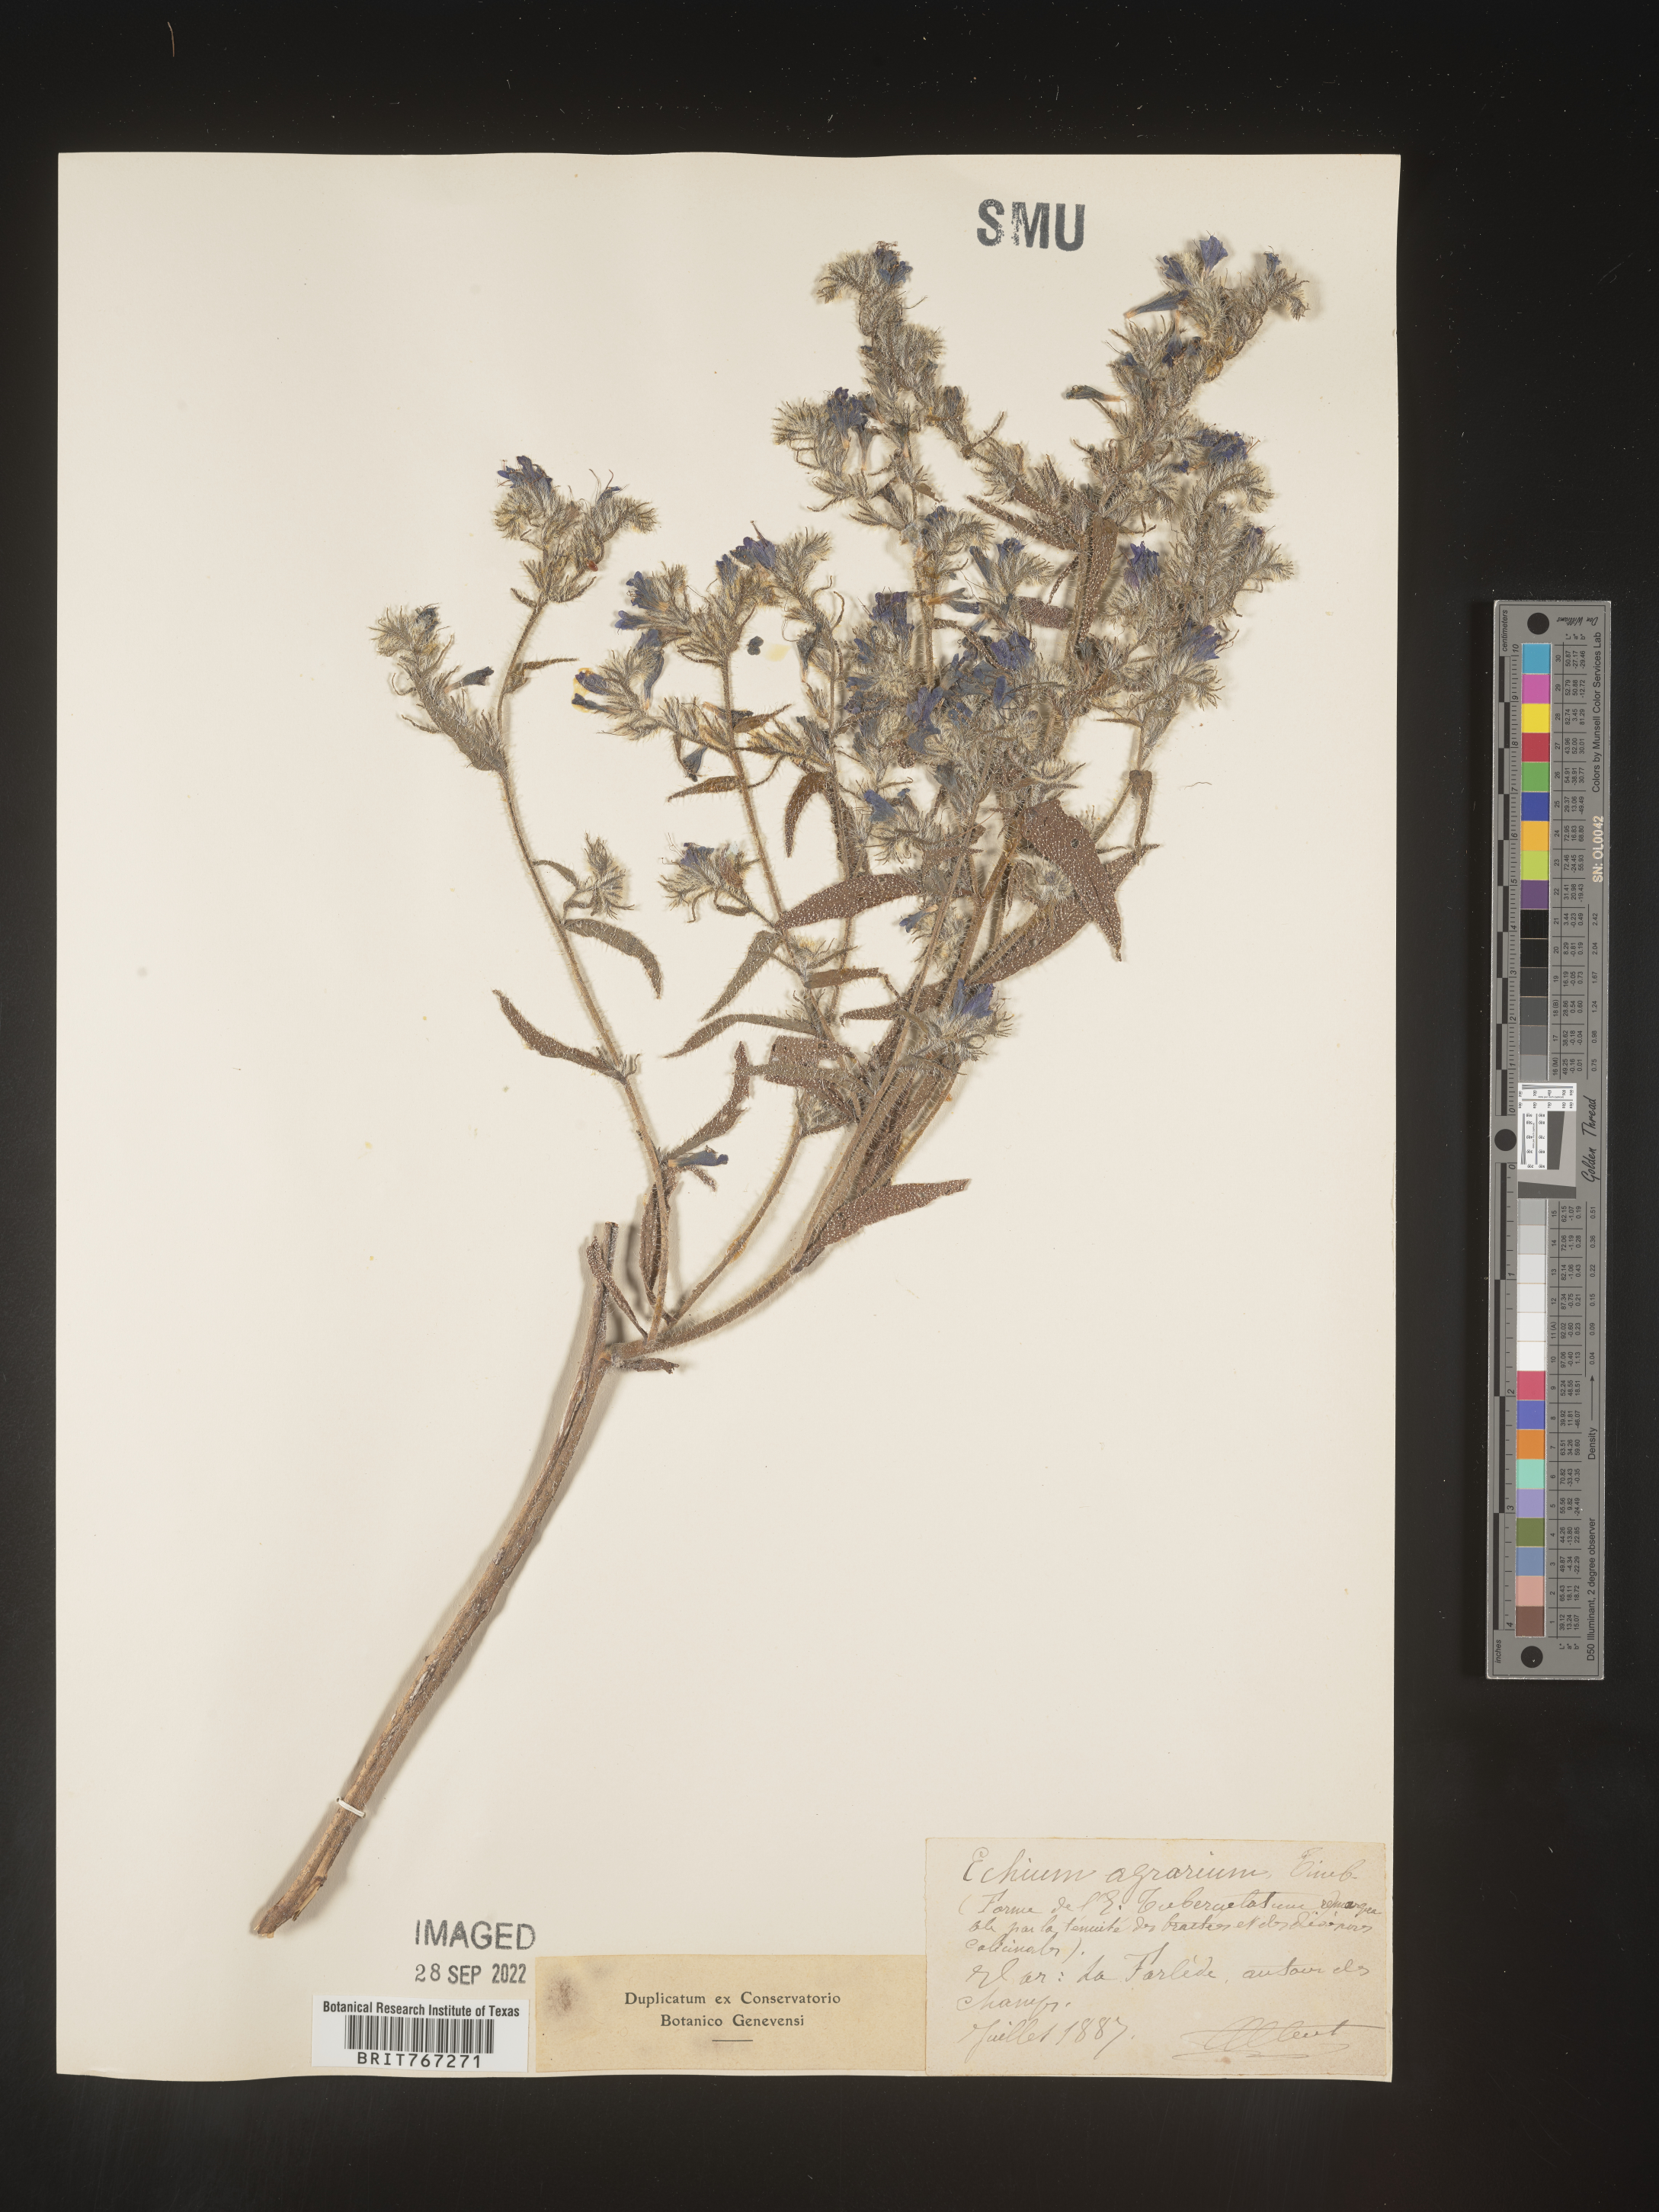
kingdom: Plantae
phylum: Tracheophyta
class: Magnoliopsida
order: Boraginales
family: Boraginaceae
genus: Echium
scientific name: Echium
